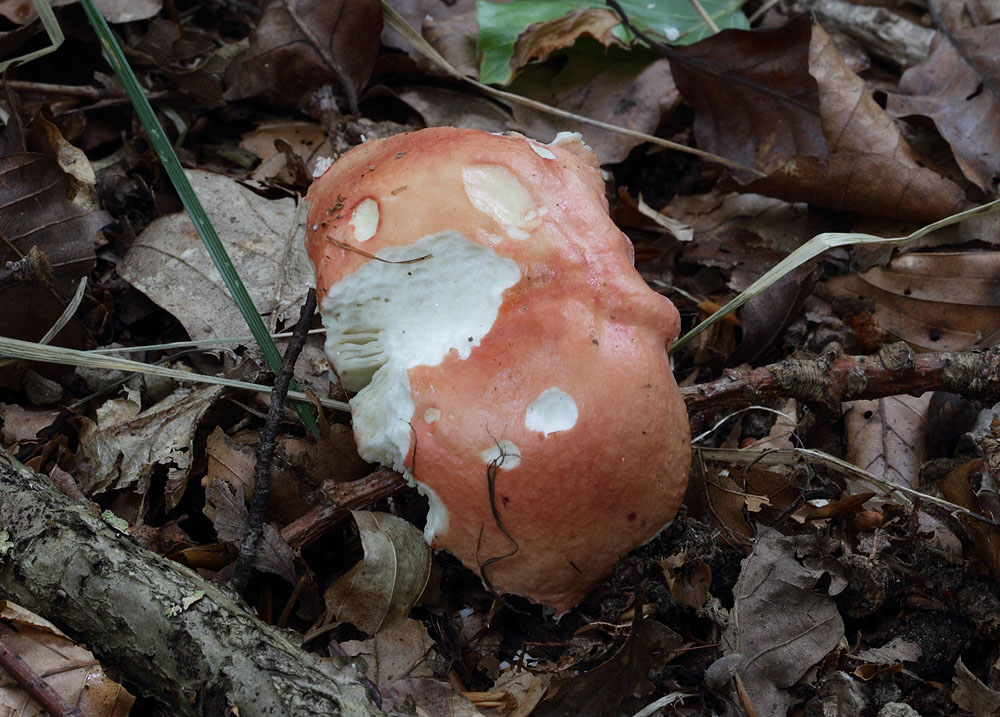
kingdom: Fungi
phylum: Basidiomycota
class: Agaricomycetes
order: Russulales
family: Russulaceae
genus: Russula
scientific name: Russula pseudointegra
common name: cinnoberrød skørhat
